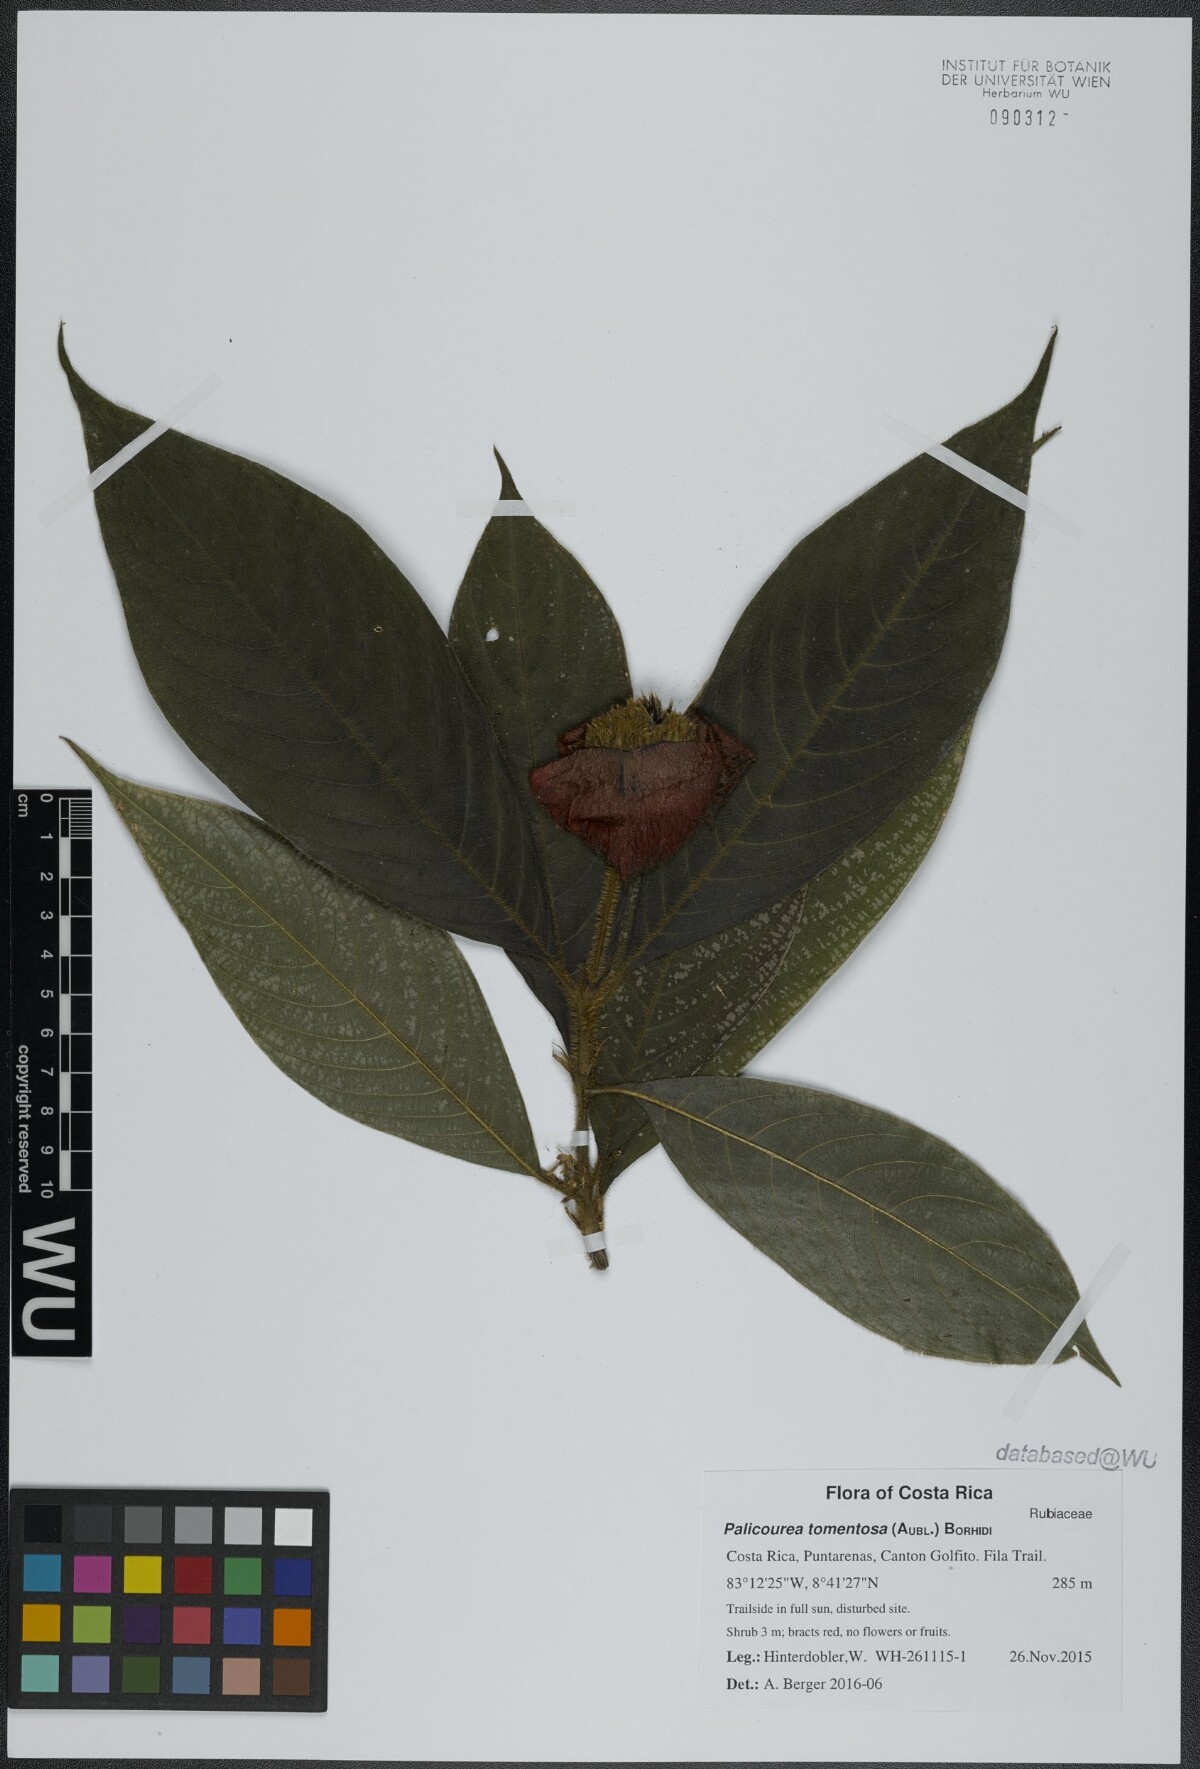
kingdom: Plantae
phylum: Tracheophyta
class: Magnoliopsida
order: Gentianales
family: Rubiaceae
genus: Palicourea
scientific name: Palicourea tomentosa
